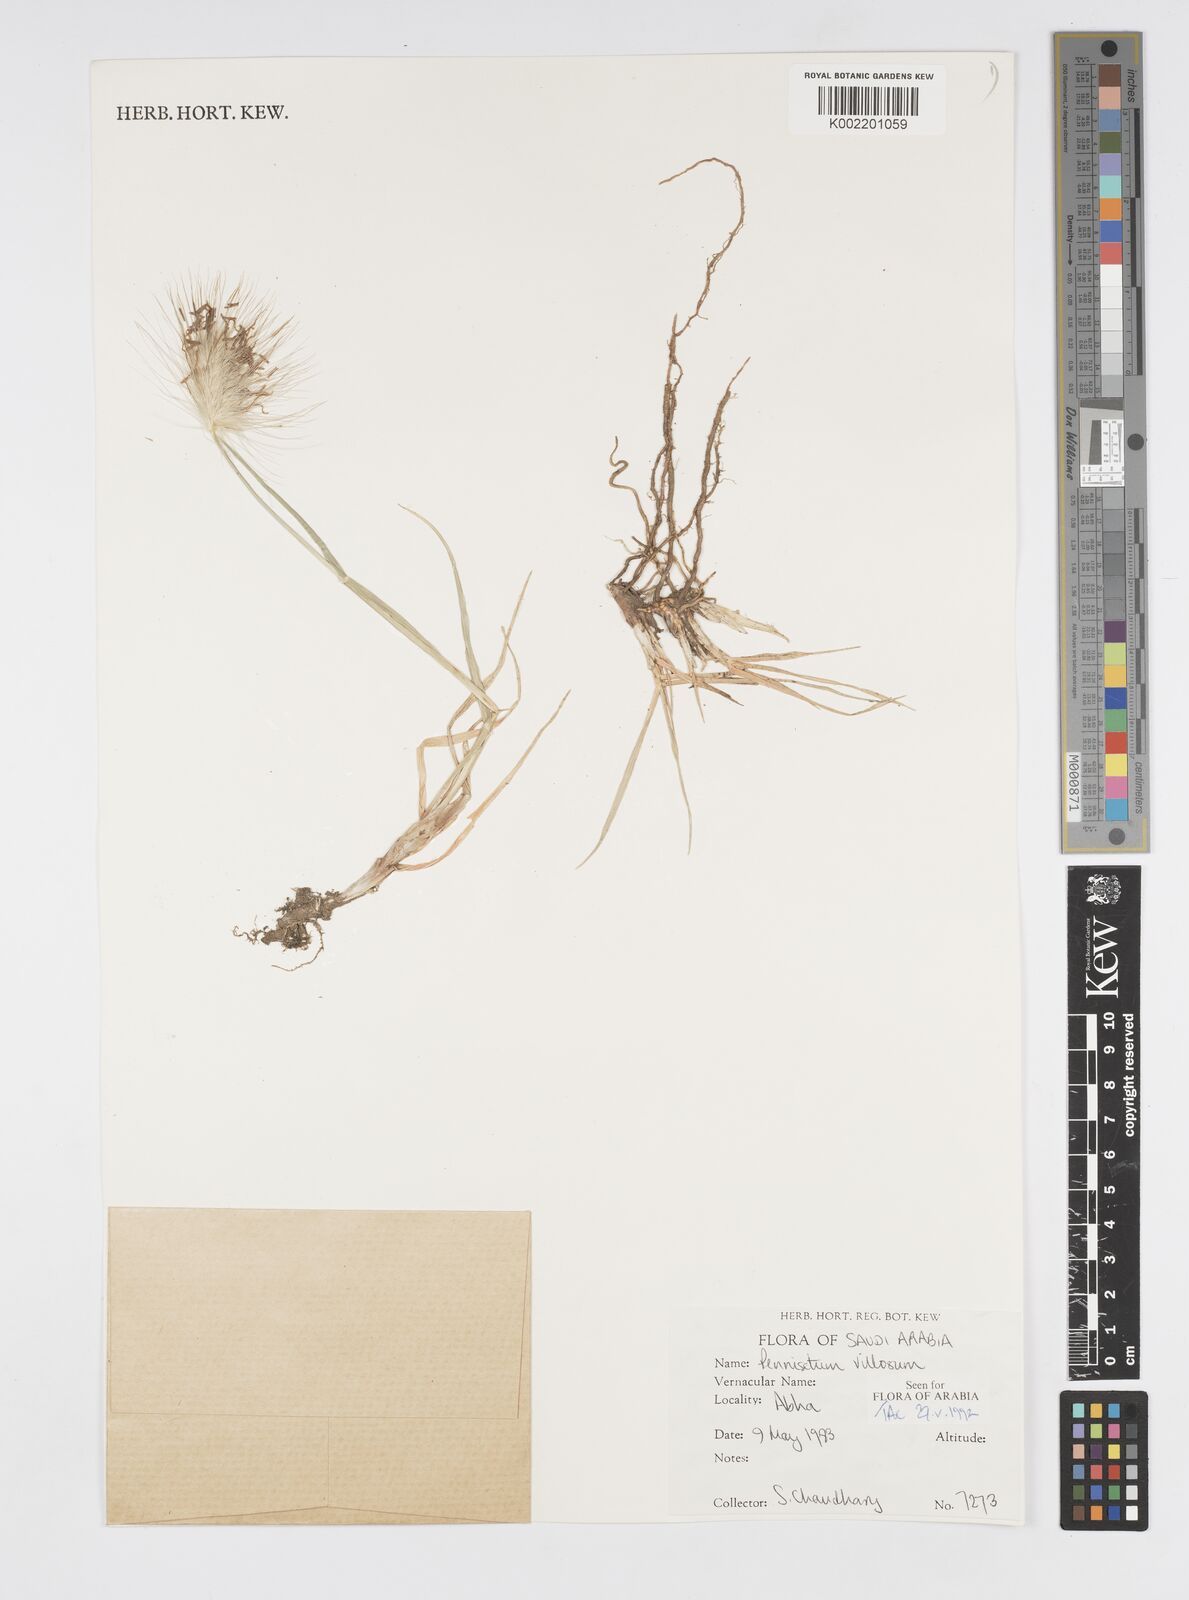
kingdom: Plantae
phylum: Tracheophyta
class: Liliopsida
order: Poales
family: Poaceae
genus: Cenchrus
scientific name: Cenchrus longisetus
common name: Feathertop
